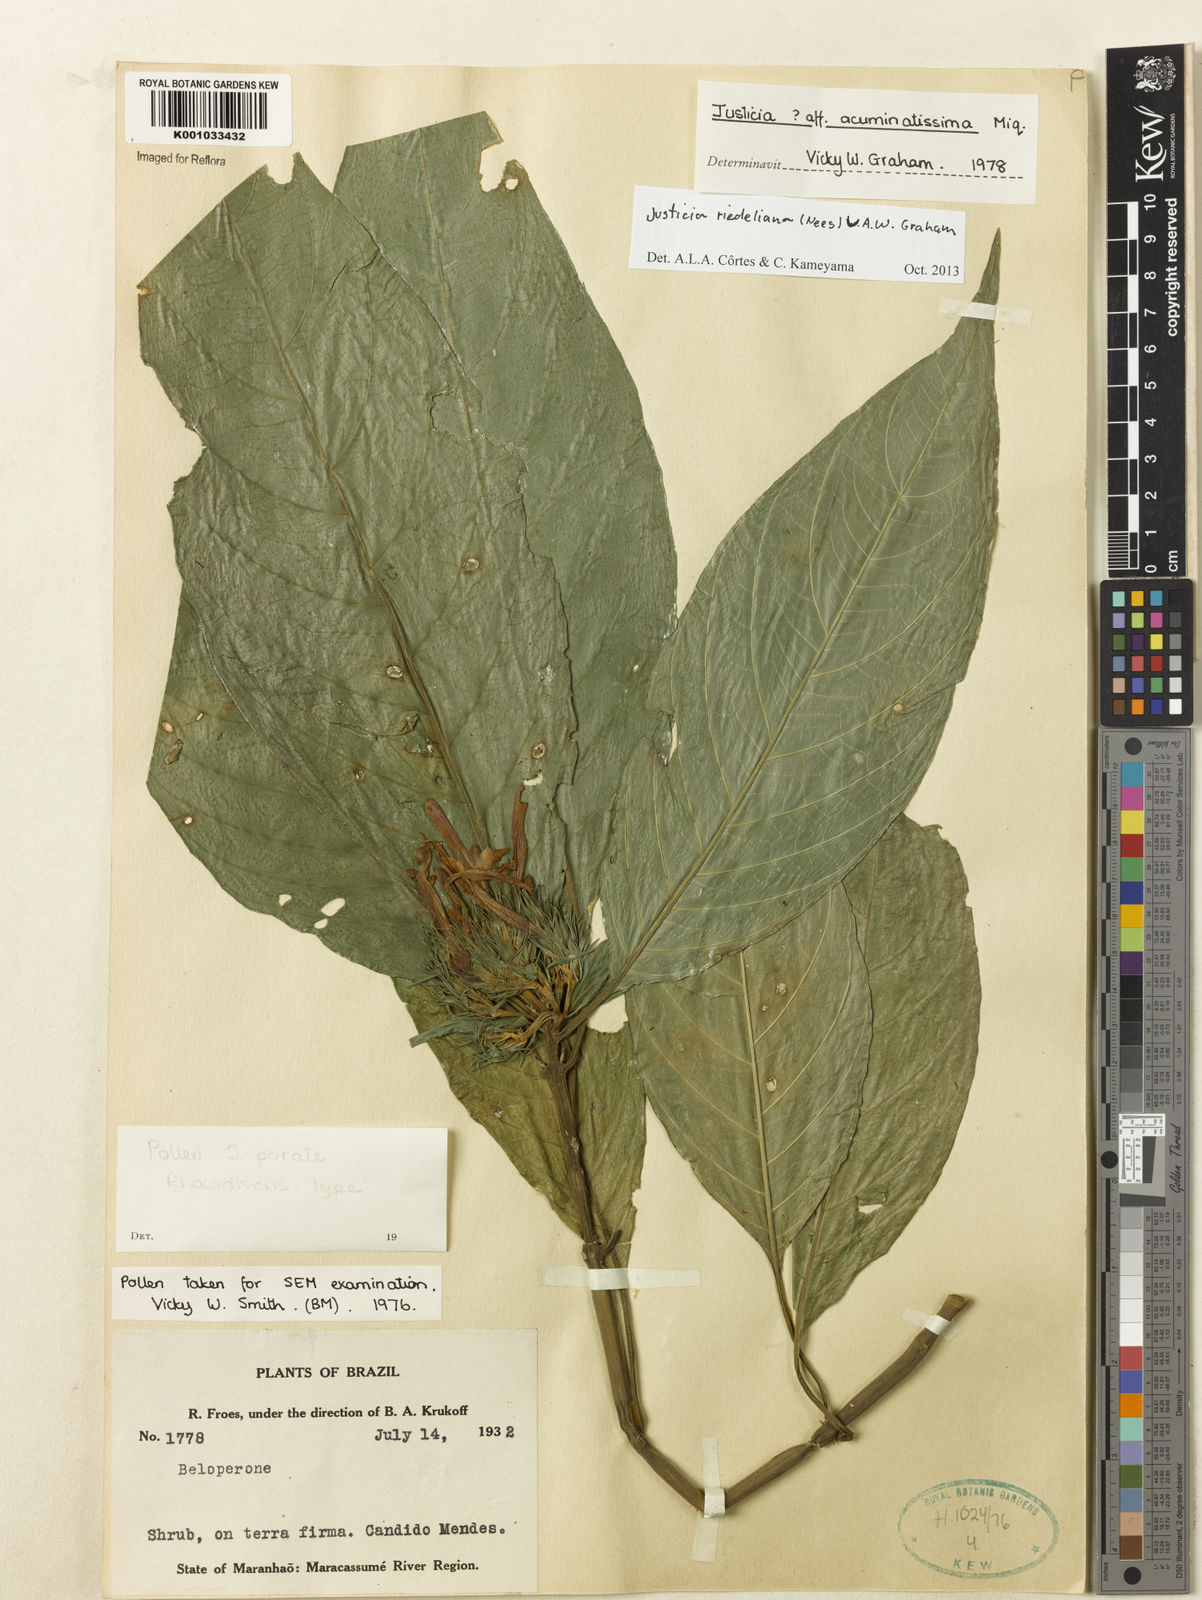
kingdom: Plantae
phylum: Tracheophyta
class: Magnoliopsida
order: Lamiales
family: Acanthaceae
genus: Justicia
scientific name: Justicia riedeliana
